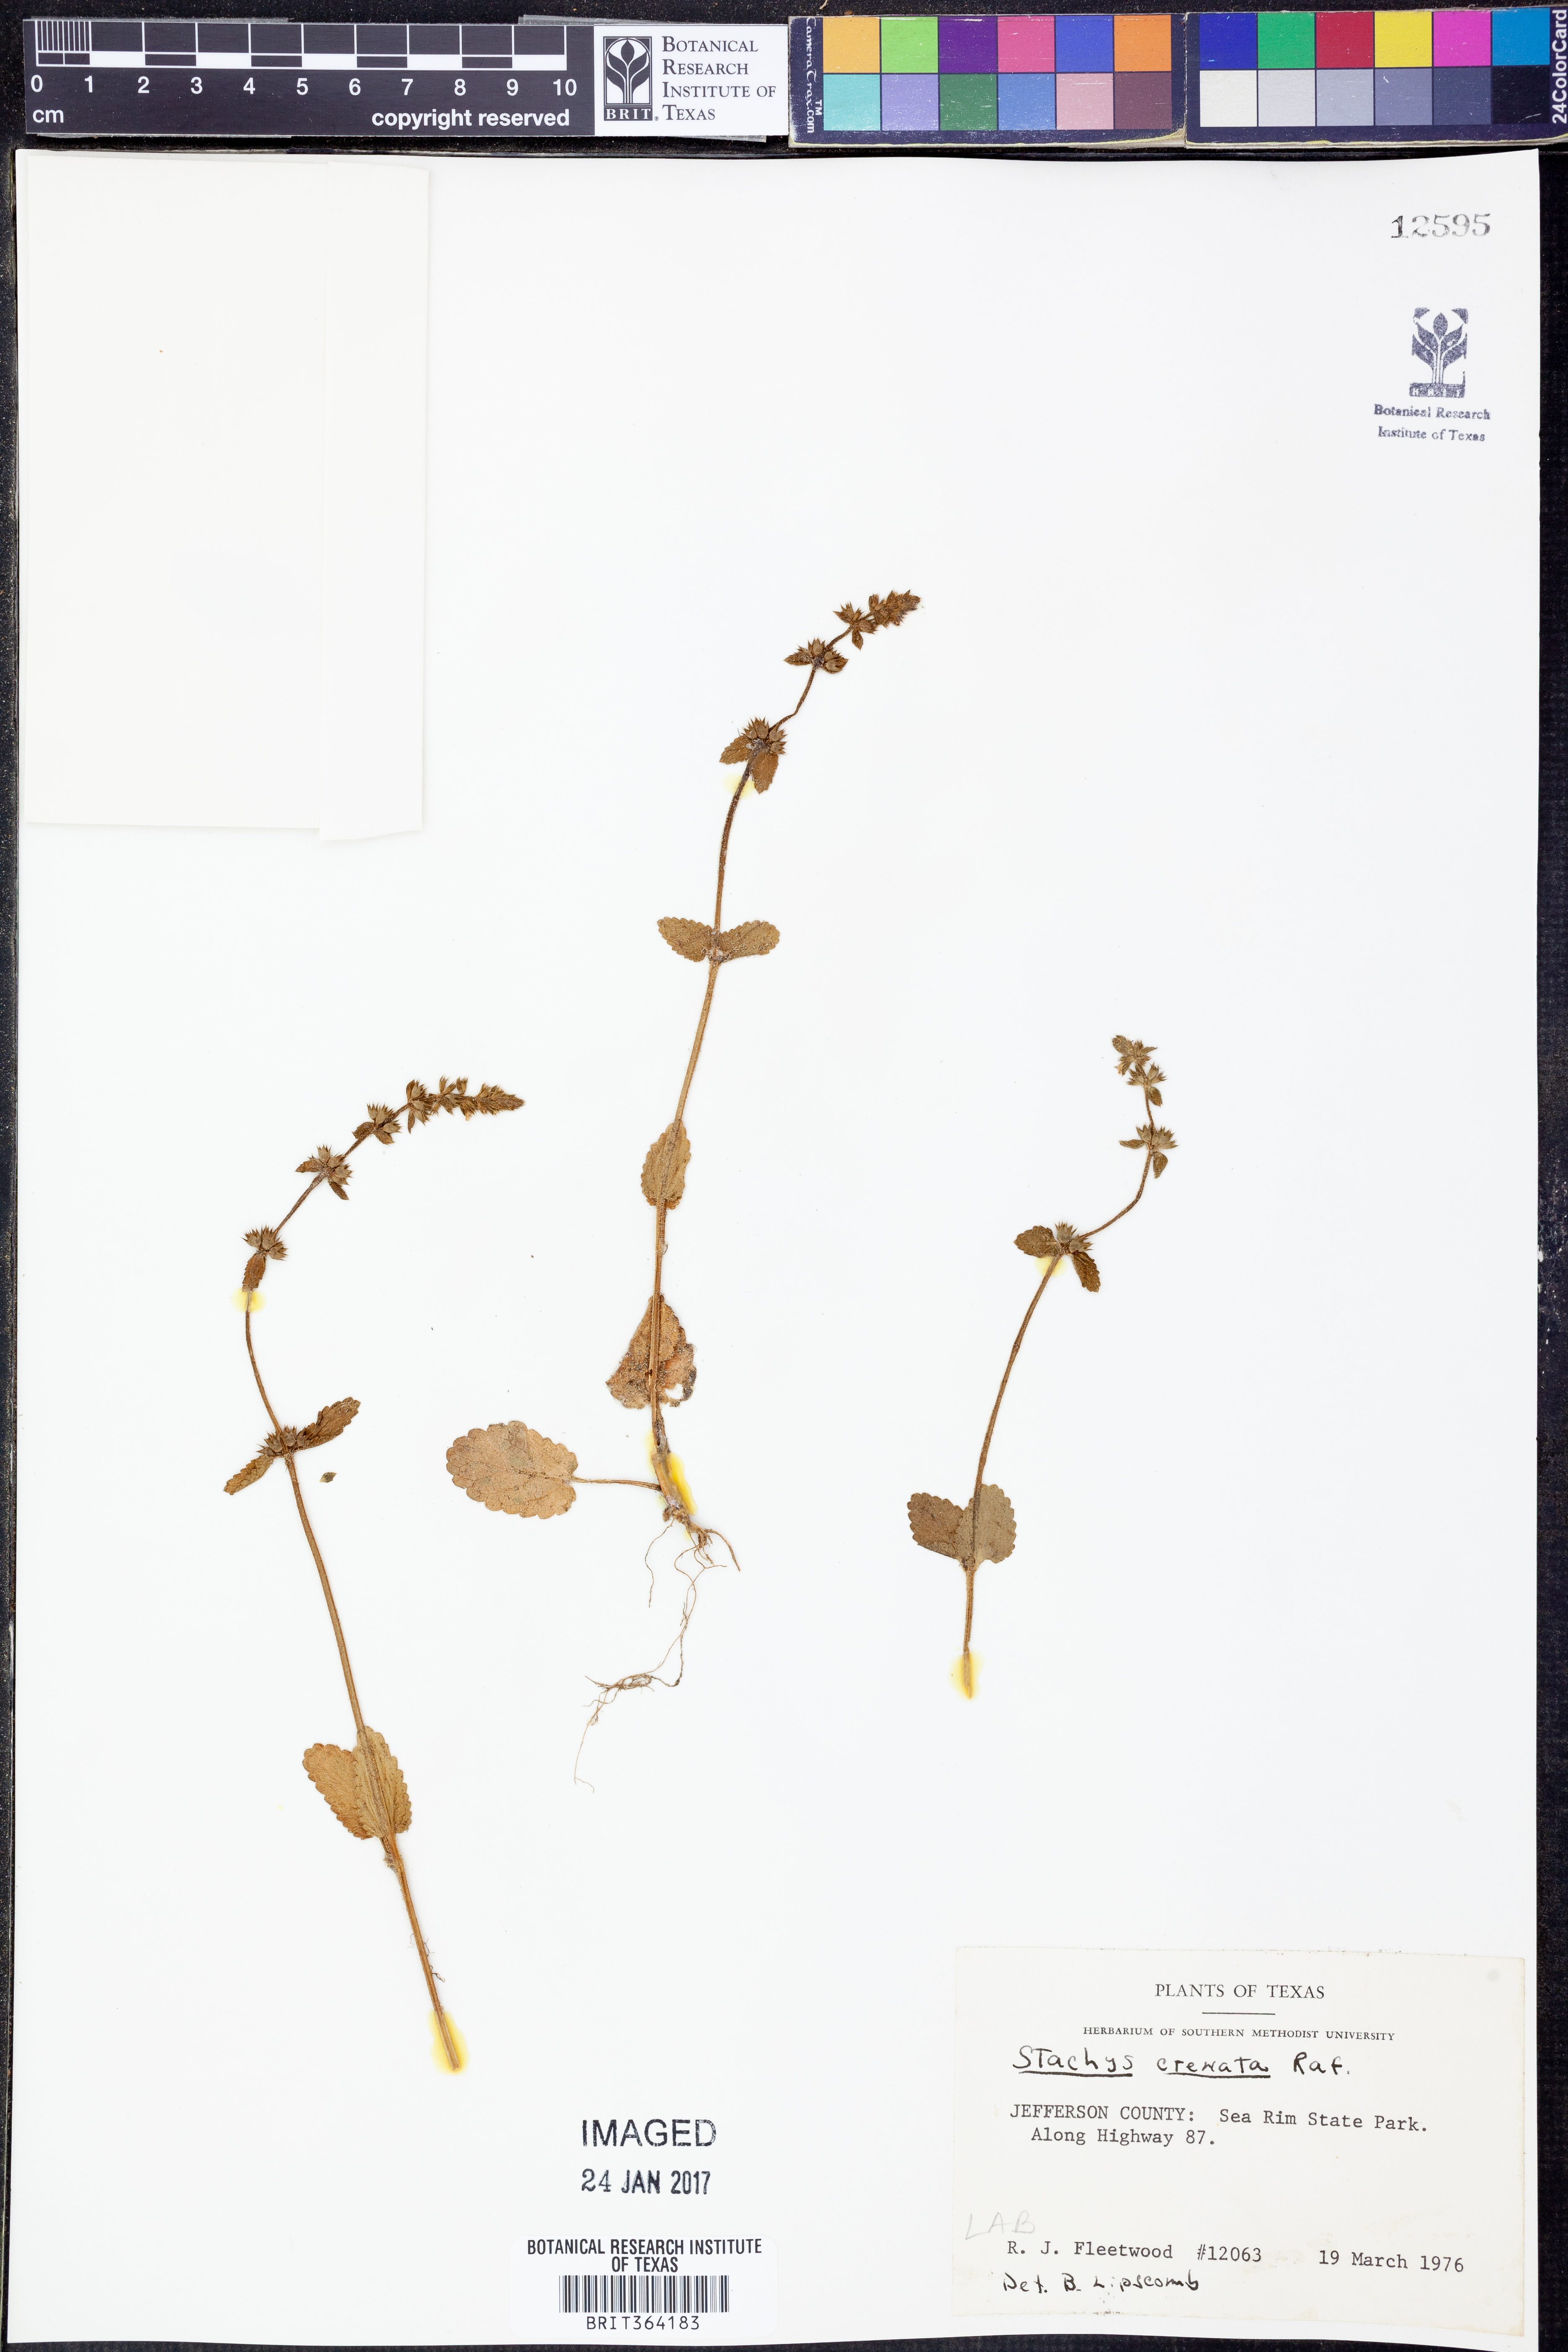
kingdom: Plantae
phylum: Tracheophyta
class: Magnoliopsida
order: Lamiales
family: Lamiaceae
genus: Stachys
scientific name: Stachys agraria
